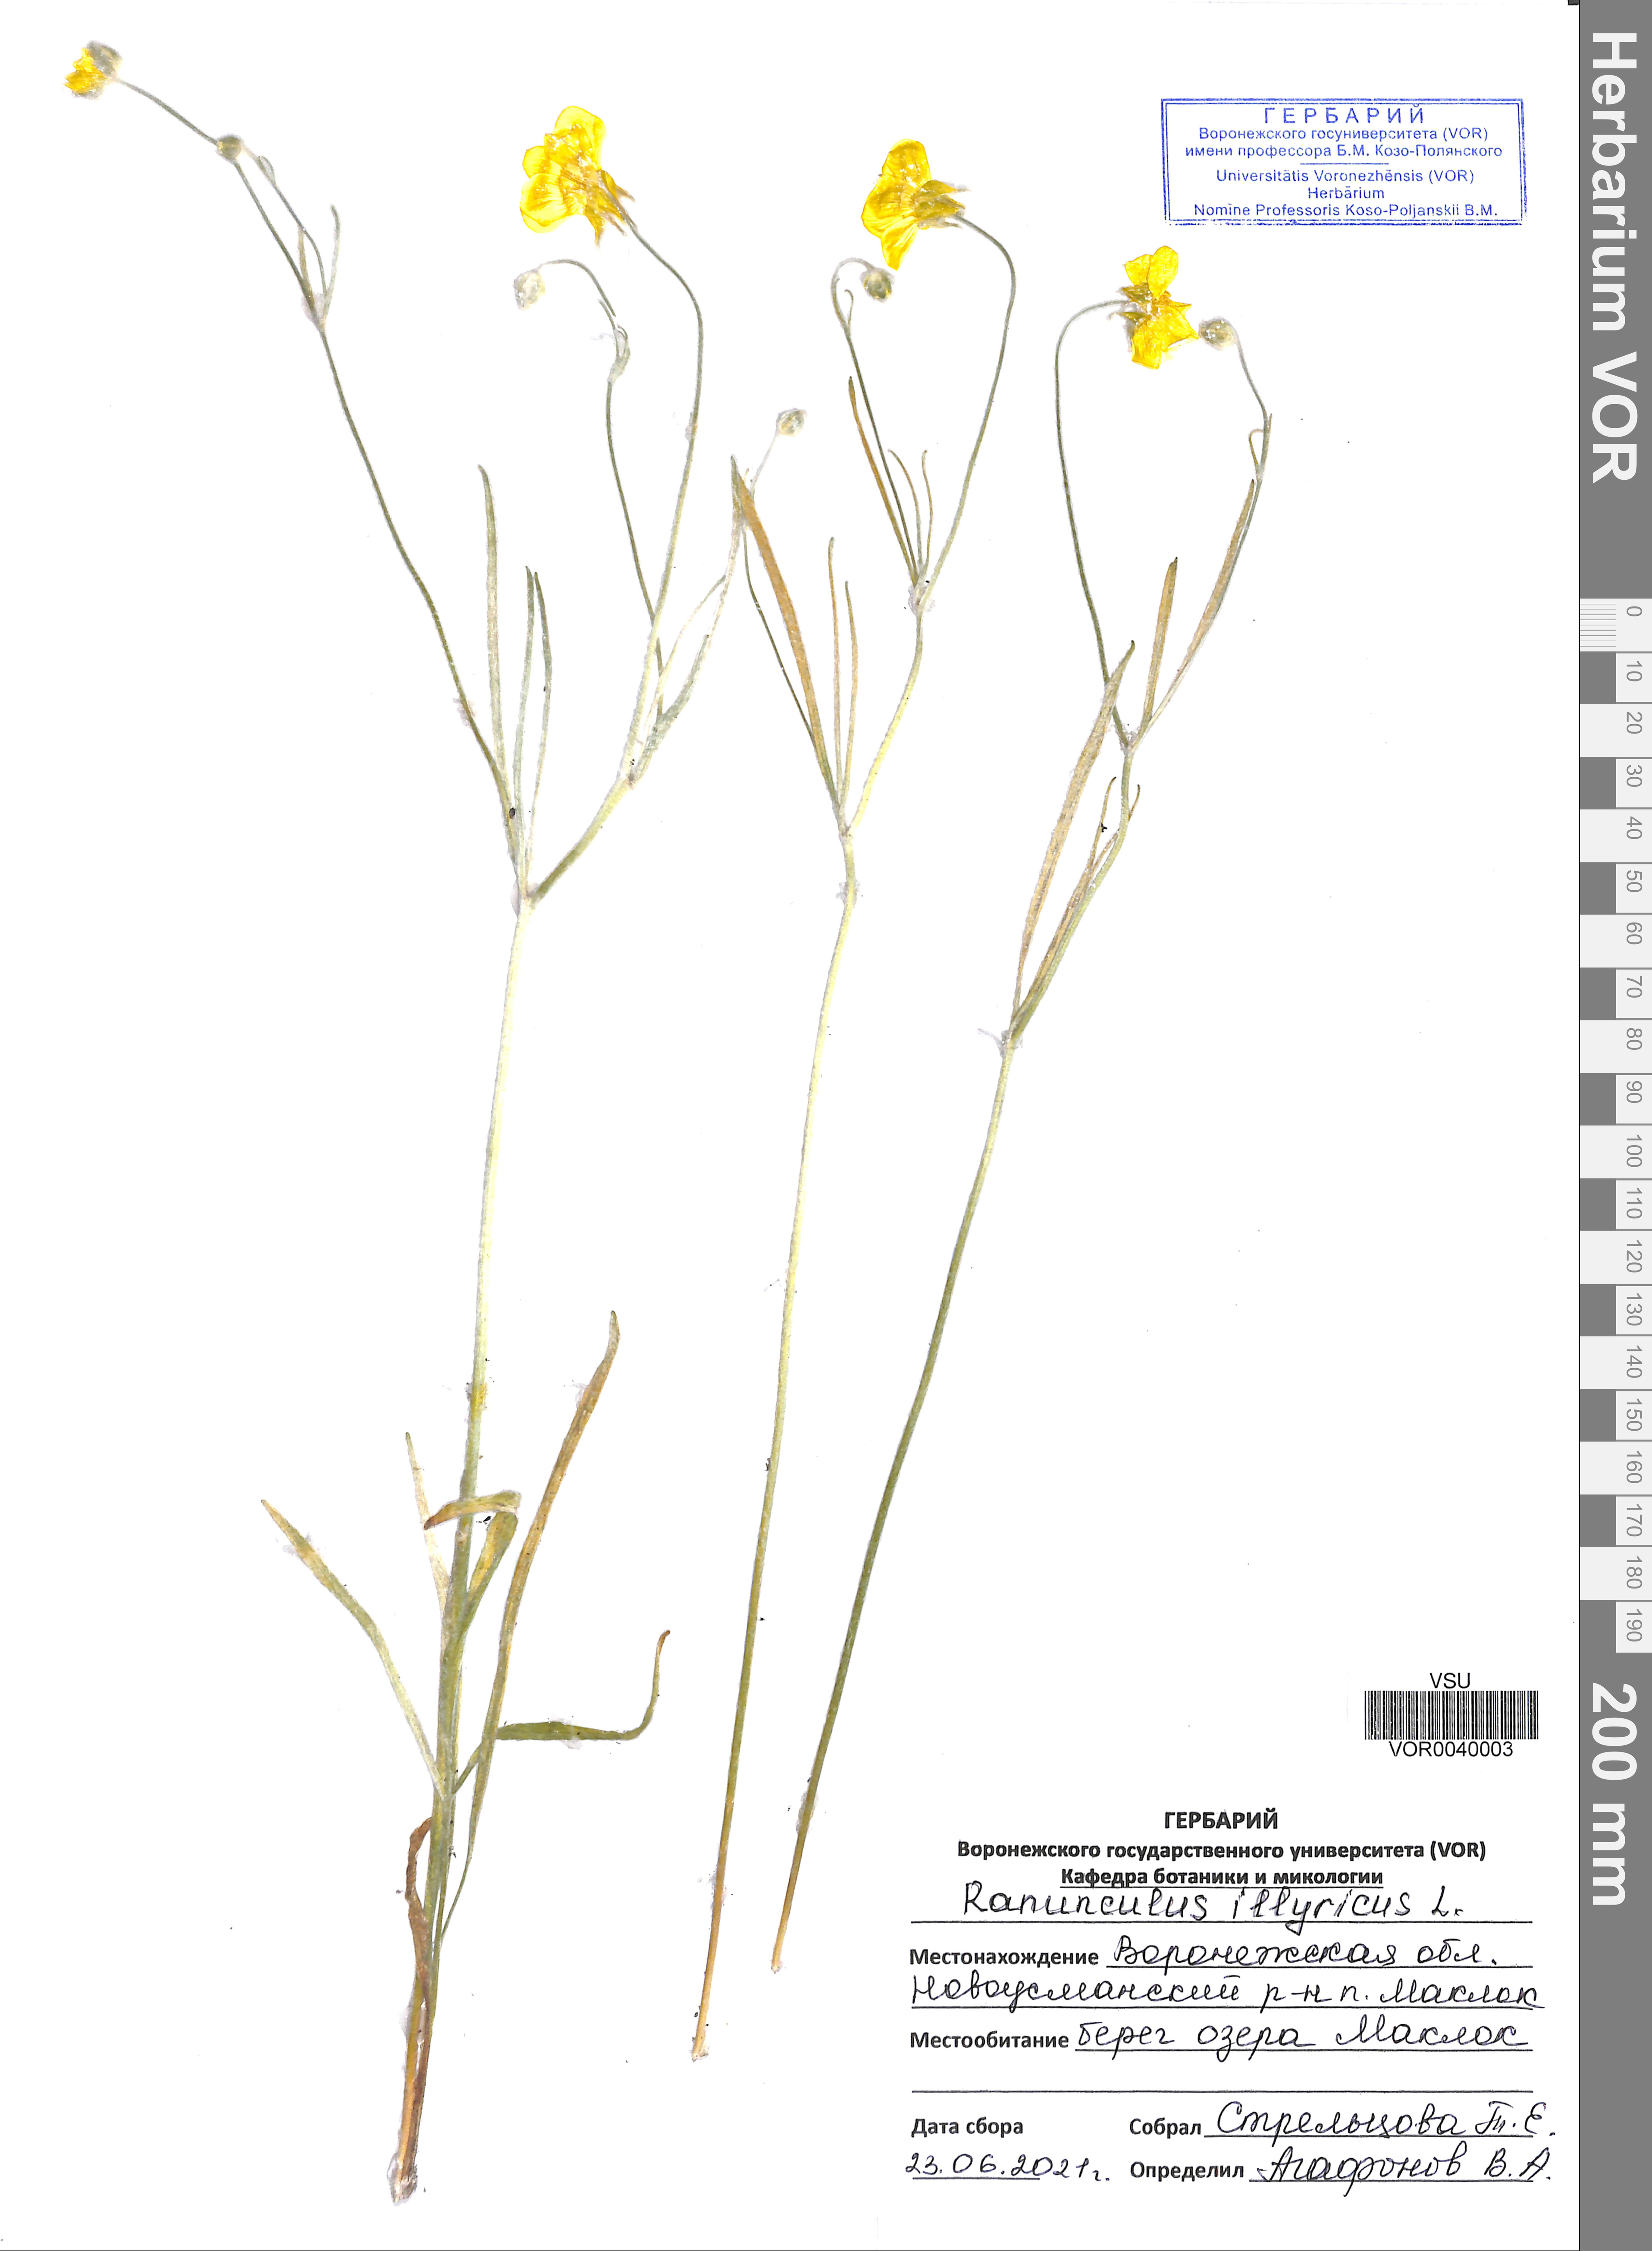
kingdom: Plantae
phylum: Tracheophyta
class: Magnoliopsida
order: Ranunculales
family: Ranunculaceae
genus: Ranunculus
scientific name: Ranunculus illyricus
